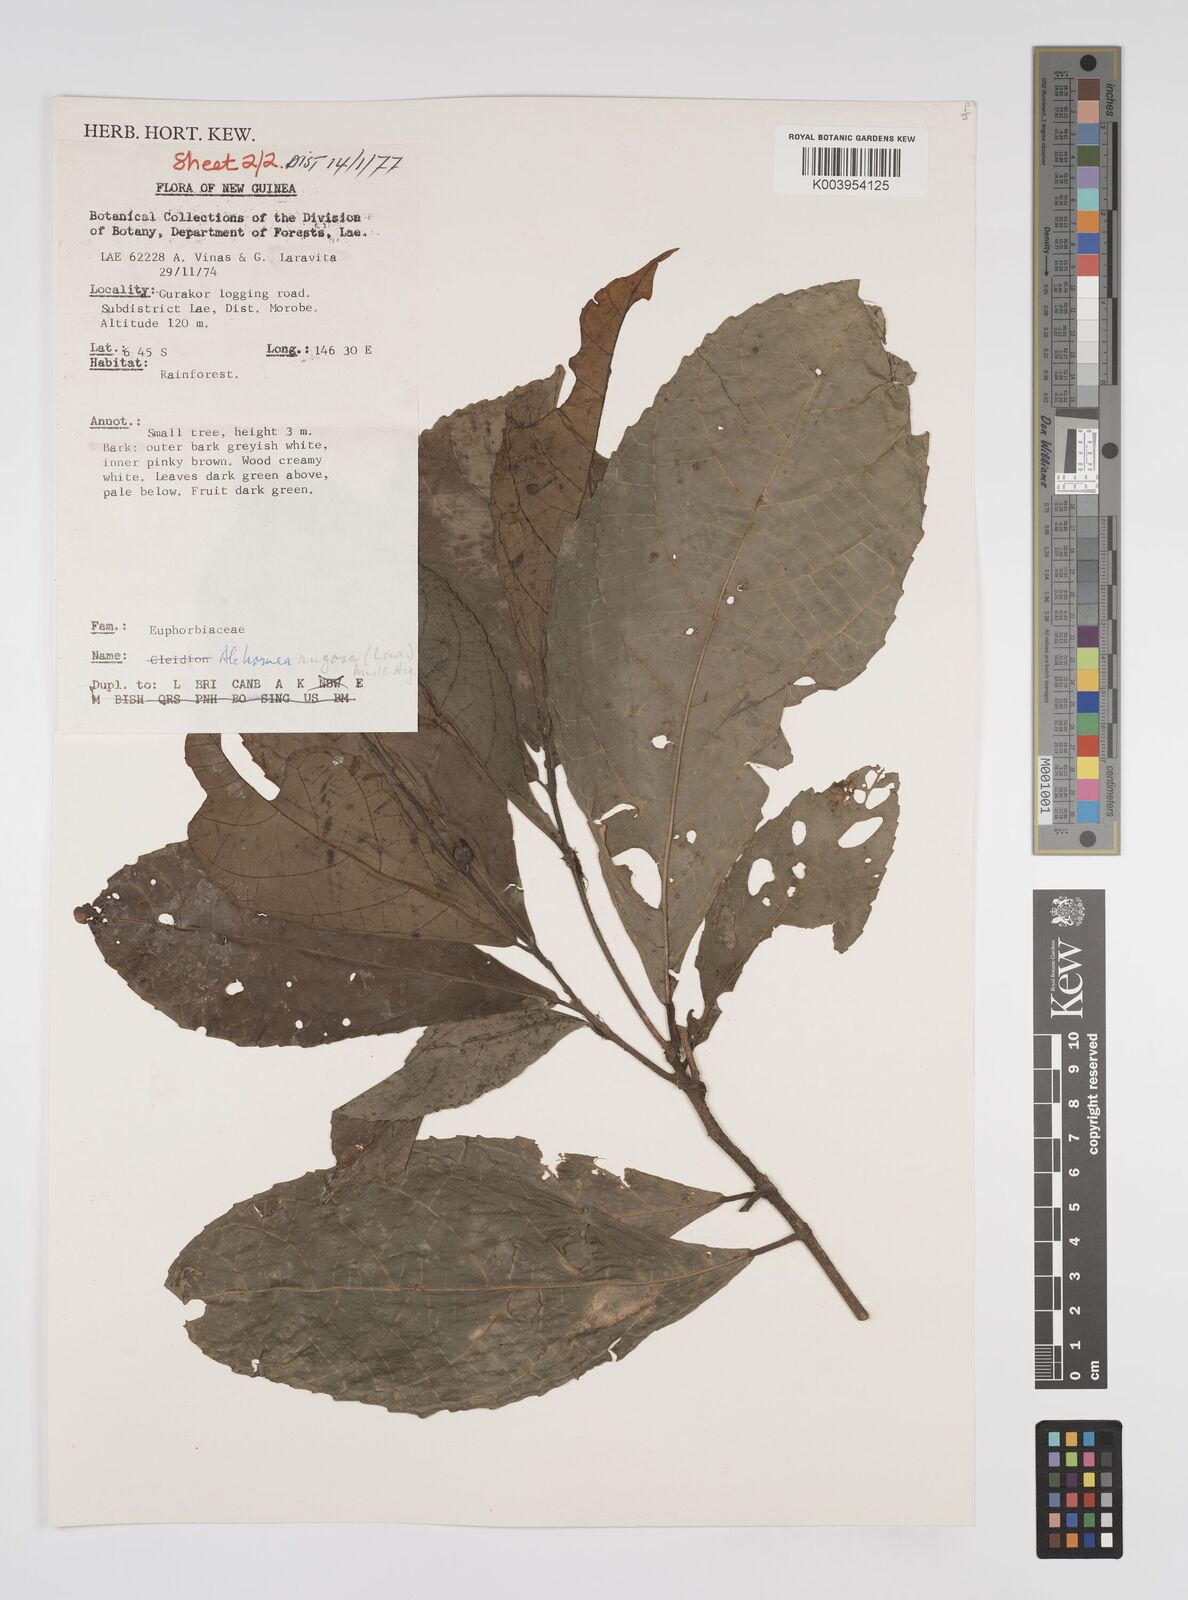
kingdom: Plantae
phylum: Tracheophyta
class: Magnoliopsida
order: Malpighiales
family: Euphorbiaceae
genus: Alchornea
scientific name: Alchornea rugosa
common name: Alchorntree
